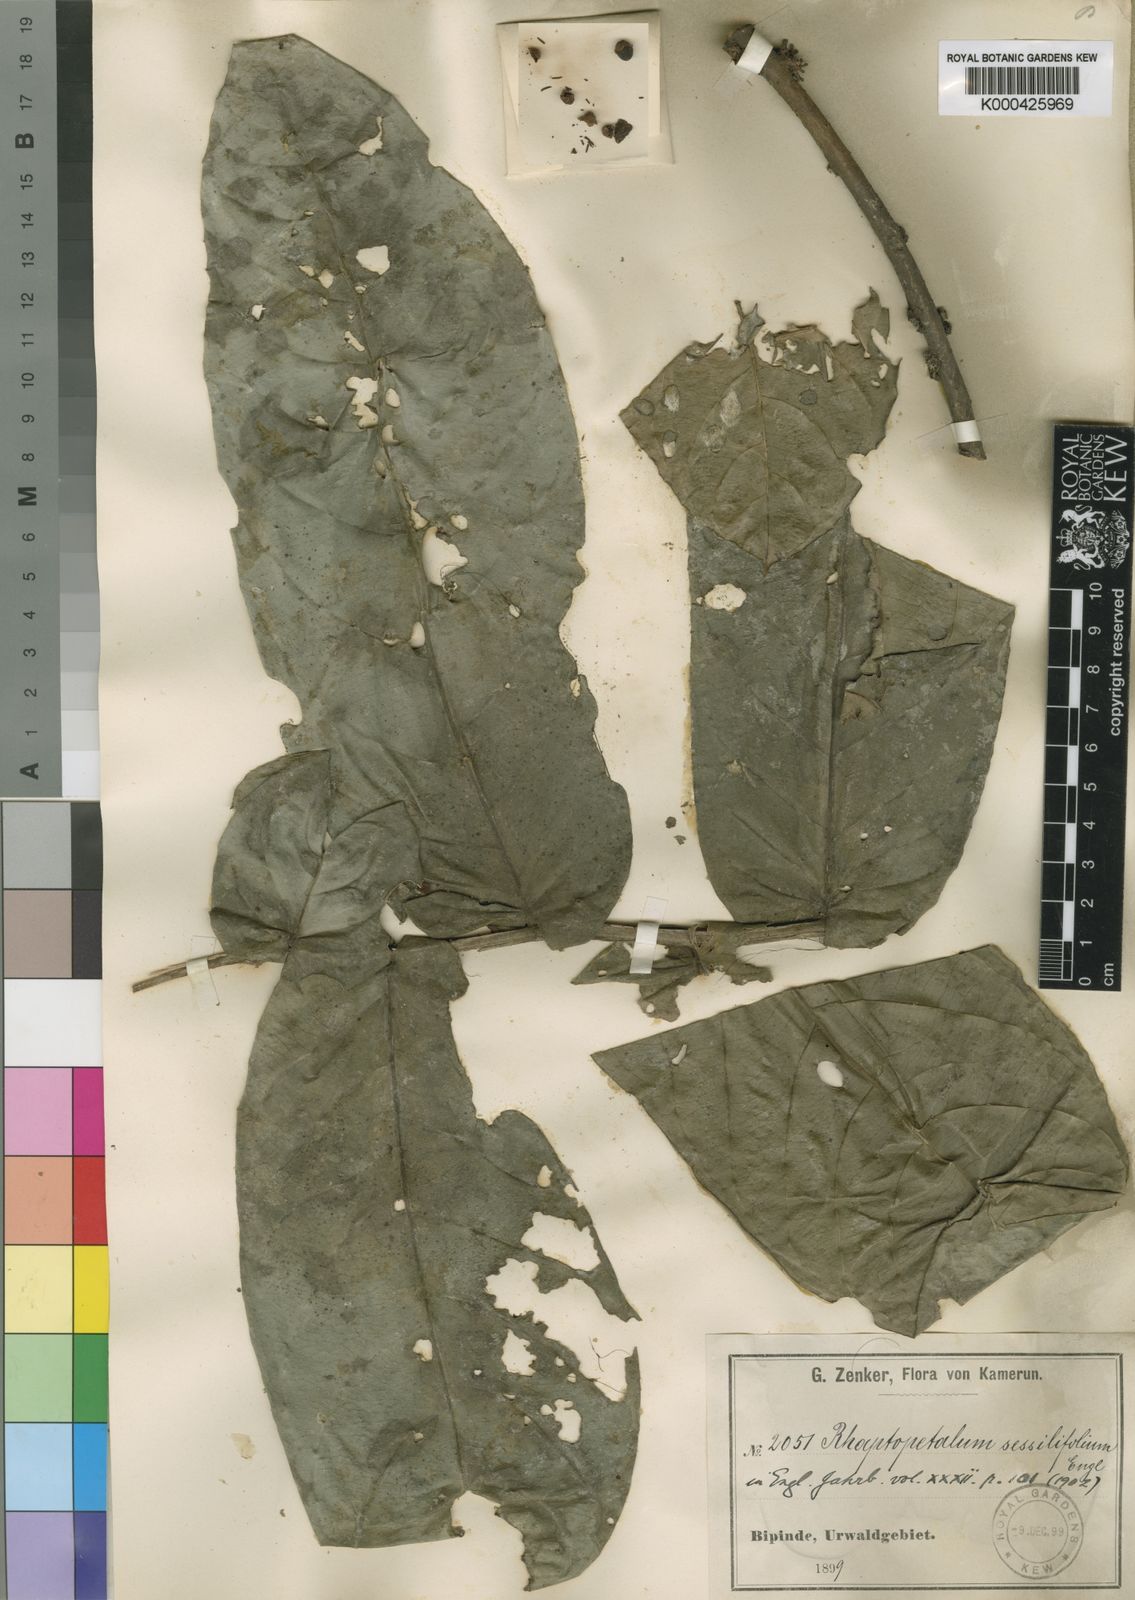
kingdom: Plantae
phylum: Tracheophyta
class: Magnoliopsida
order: Ericales
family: Lecythidaceae
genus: Rhaptopetalum
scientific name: Rhaptopetalum sessilifolium
